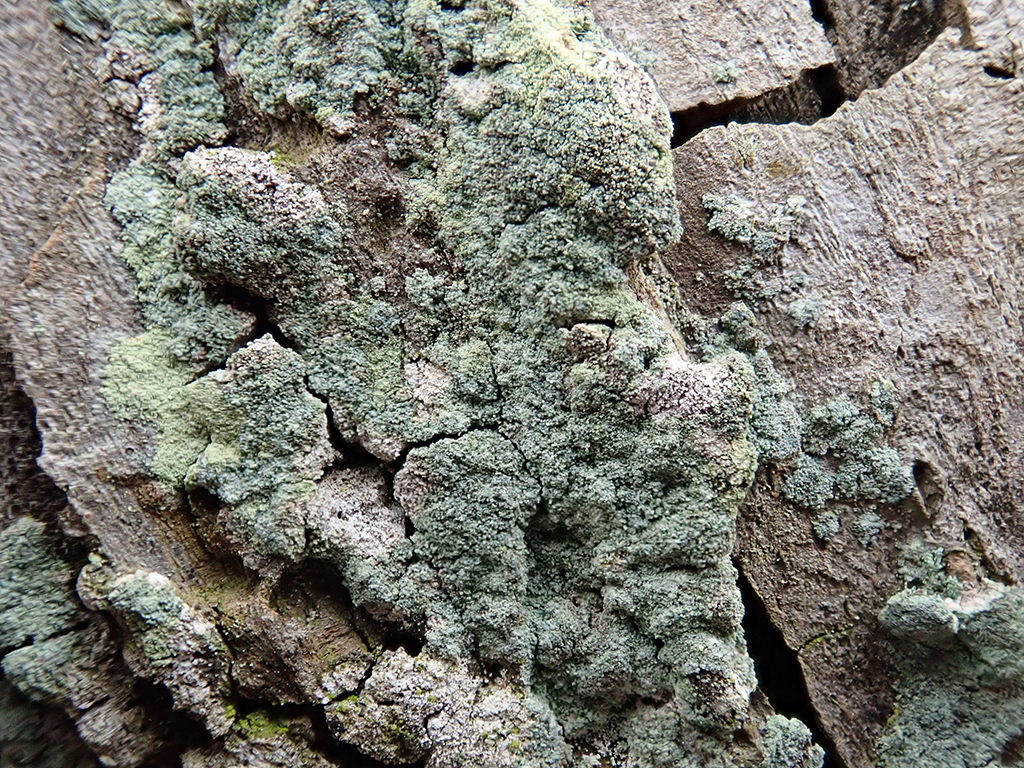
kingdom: Fungi
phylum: Ascomycota
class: Lecanoromycetes
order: Lecanorales
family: Stereocaulaceae
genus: Lepraria
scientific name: Lepraria
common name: støvlav
